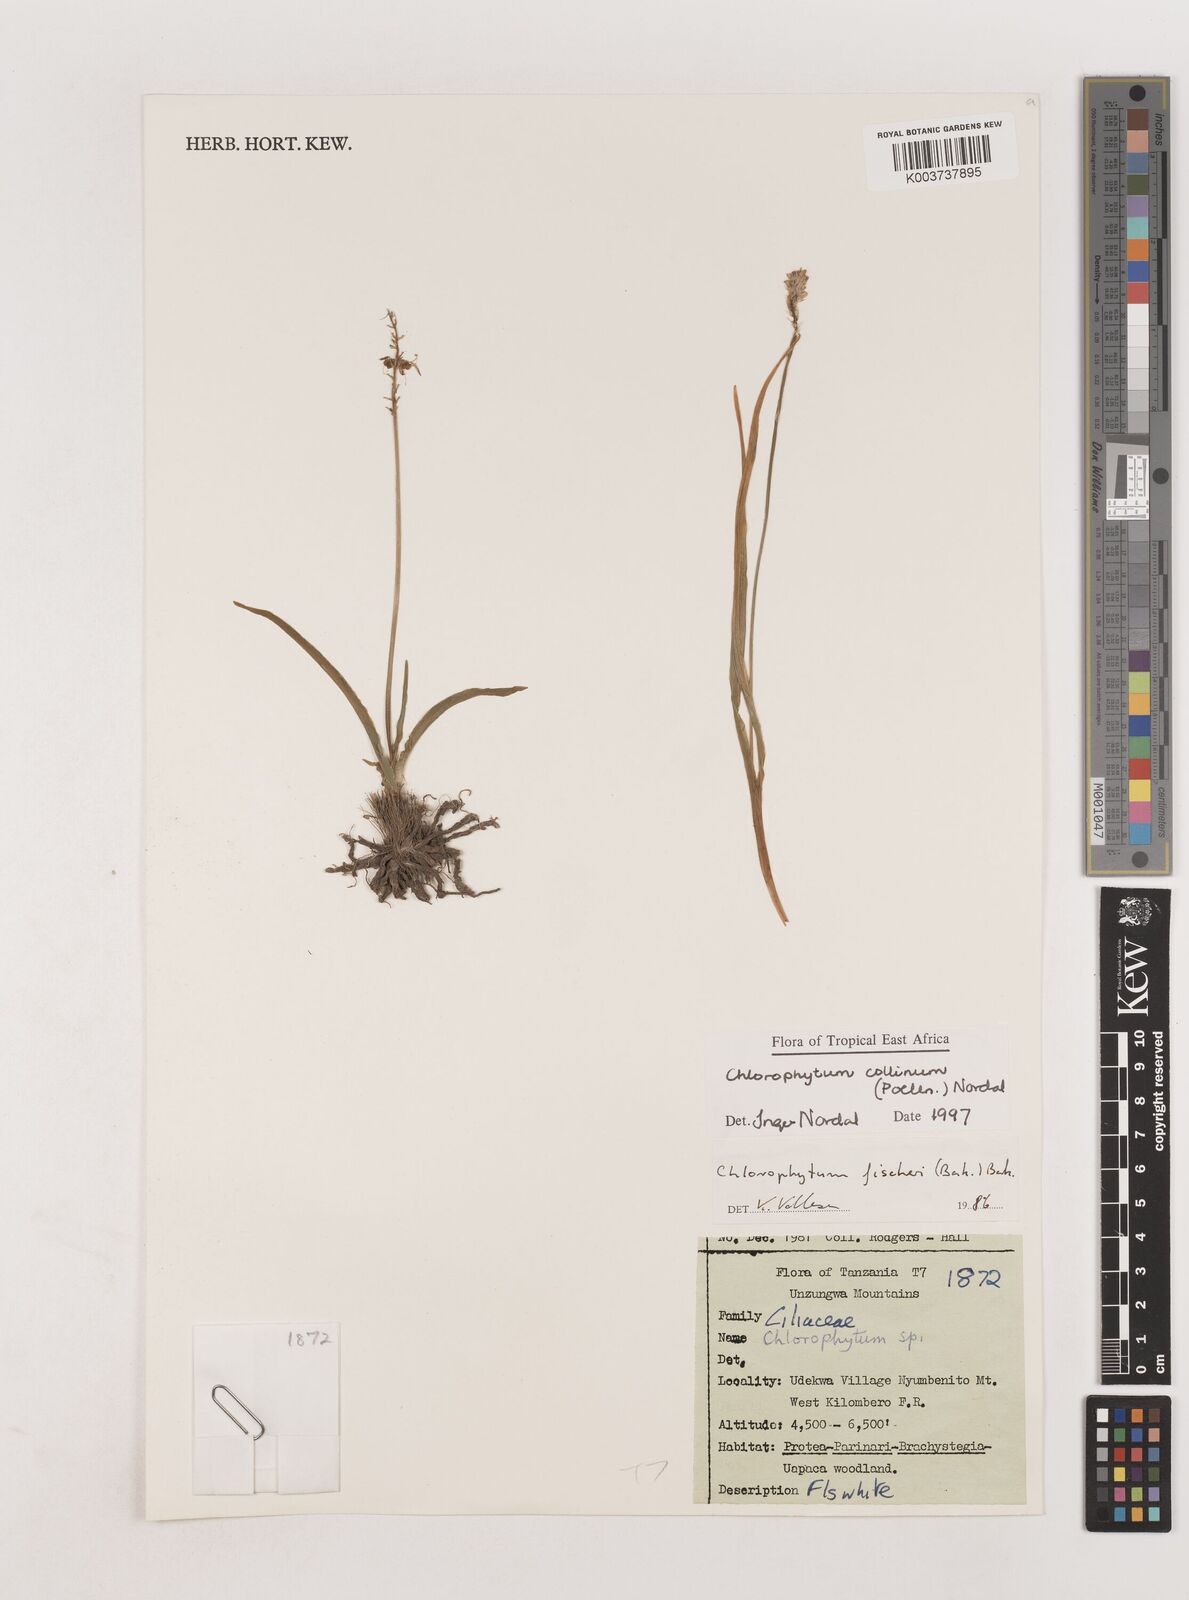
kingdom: Plantae
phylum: Tracheophyta
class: Liliopsida
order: Asparagales
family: Asparagaceae
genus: Chlorophytum
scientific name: Chlorophytum collinum
